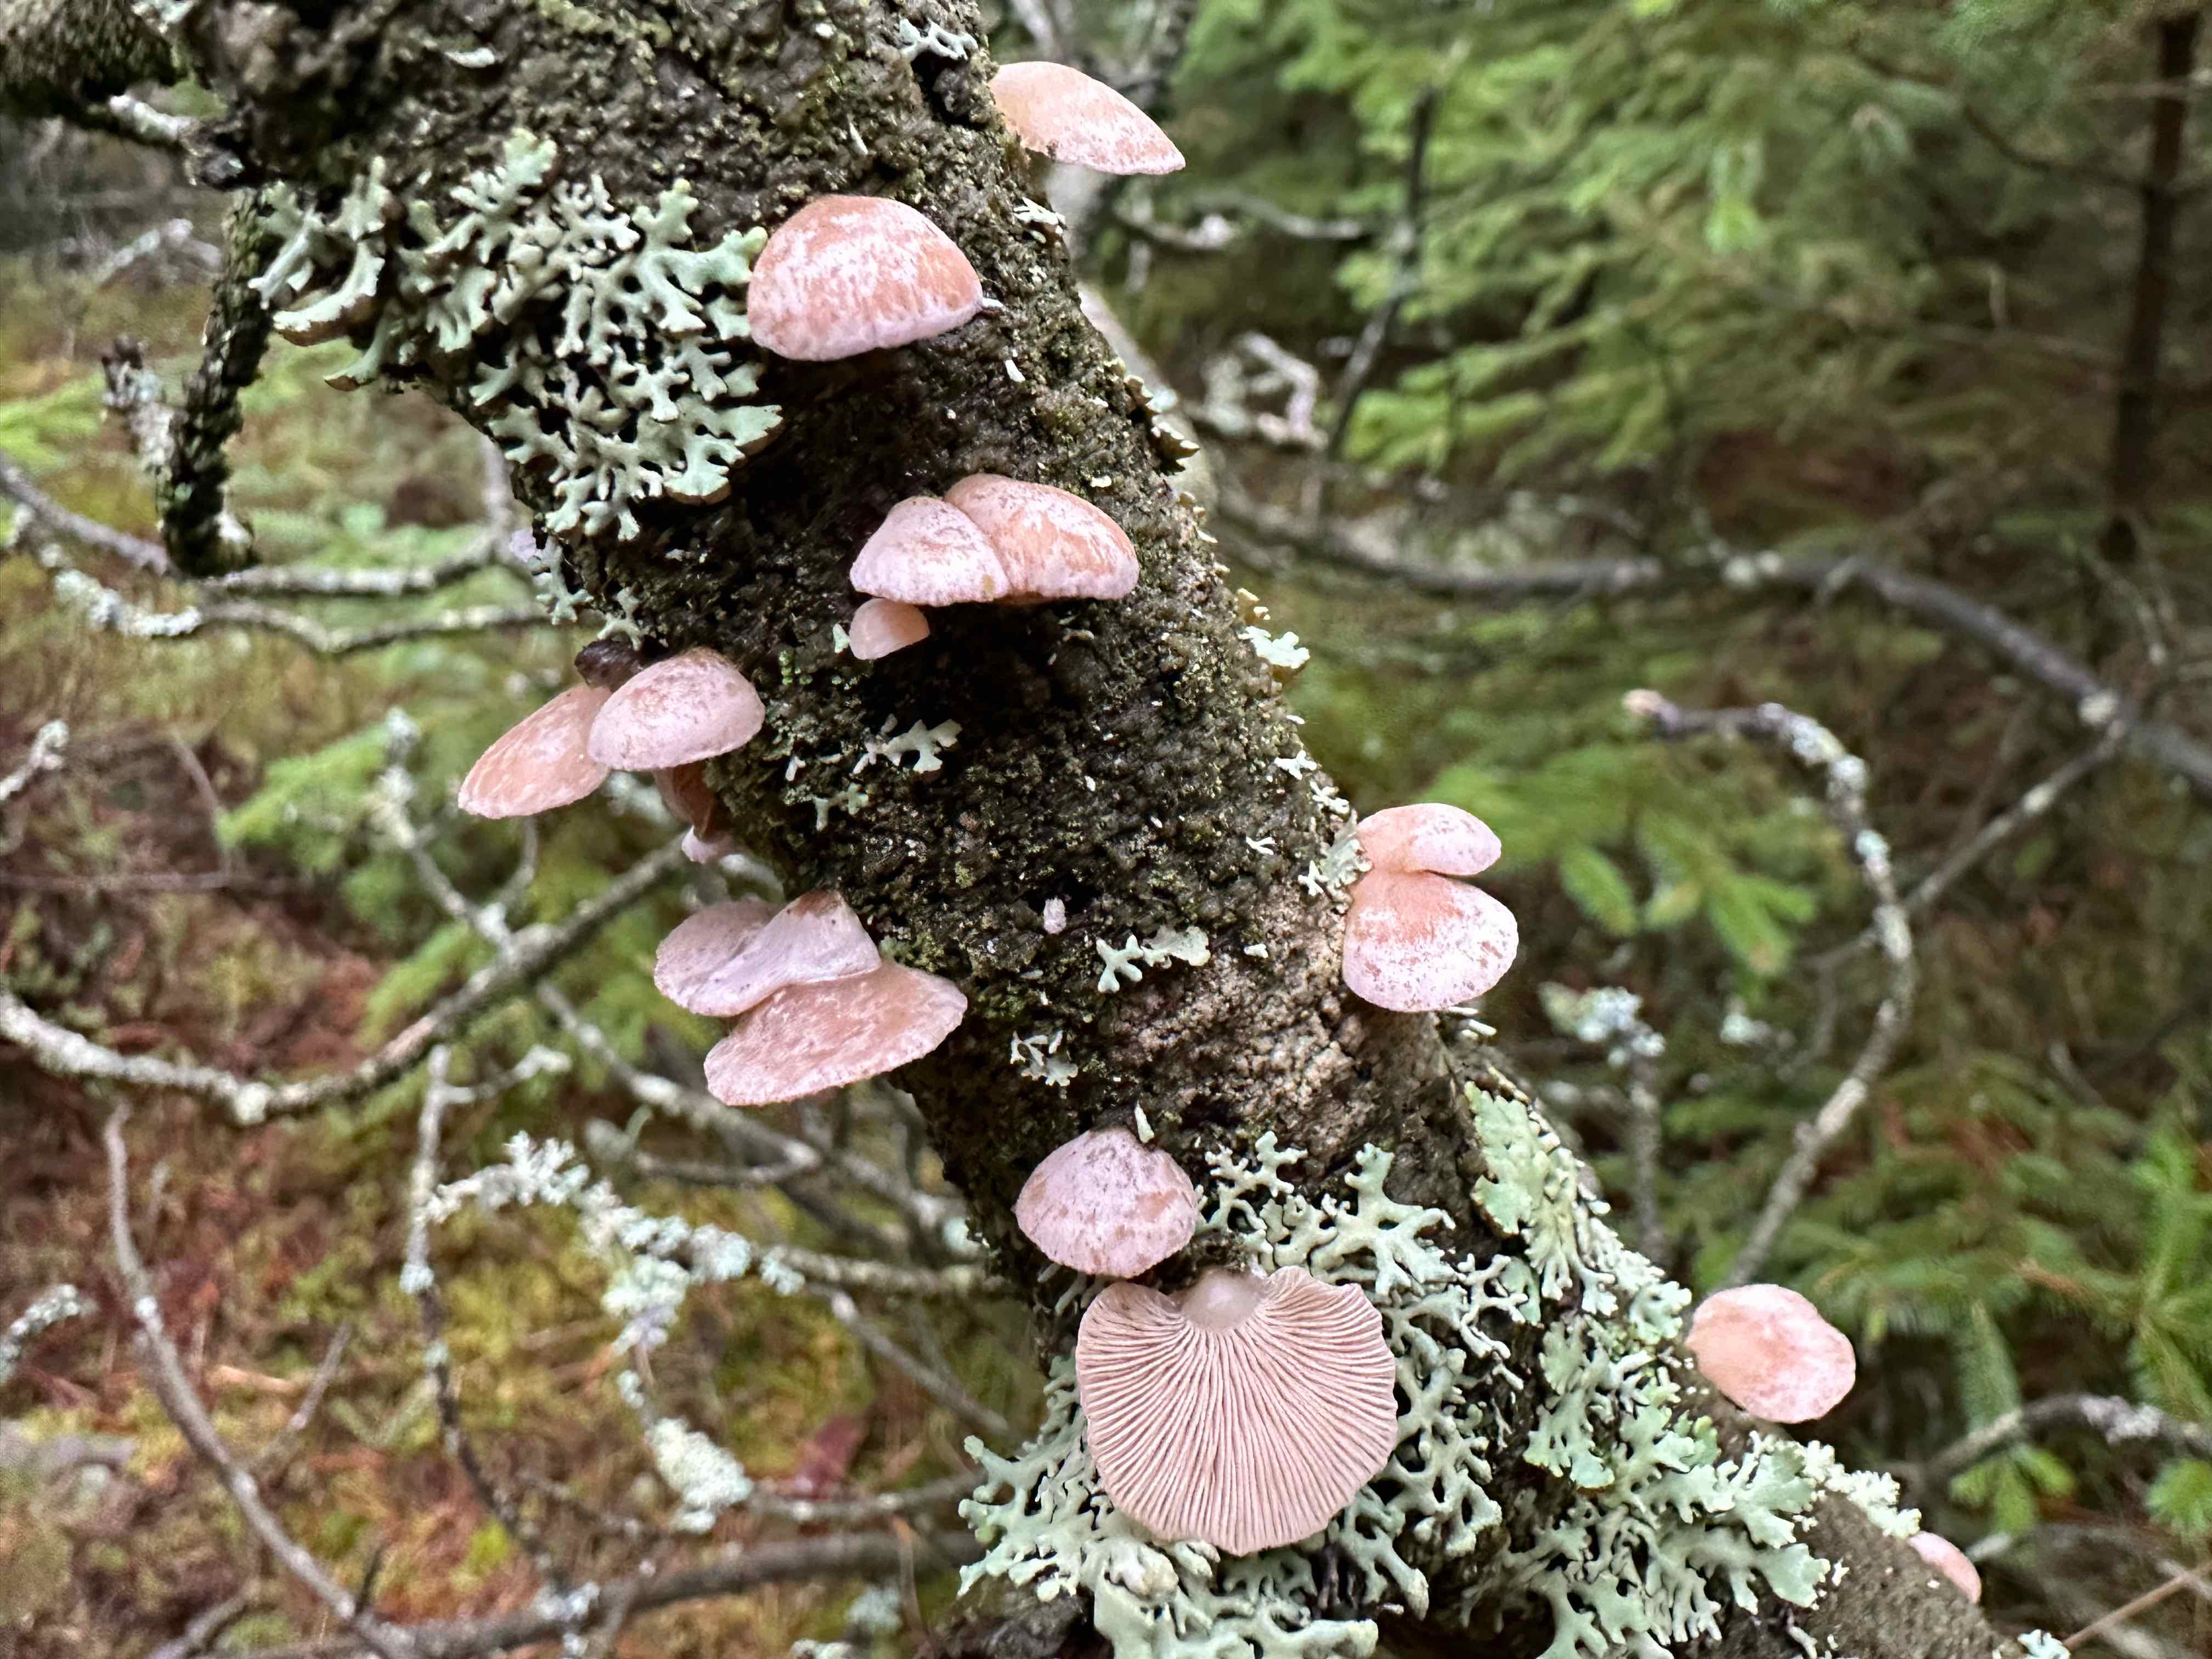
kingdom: Fungi
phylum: Basidiomycota
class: Agaricomycetes
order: Agaricales
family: Mycenaceae
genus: Panellus
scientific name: Panellus mitis
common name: mild epaulethat
